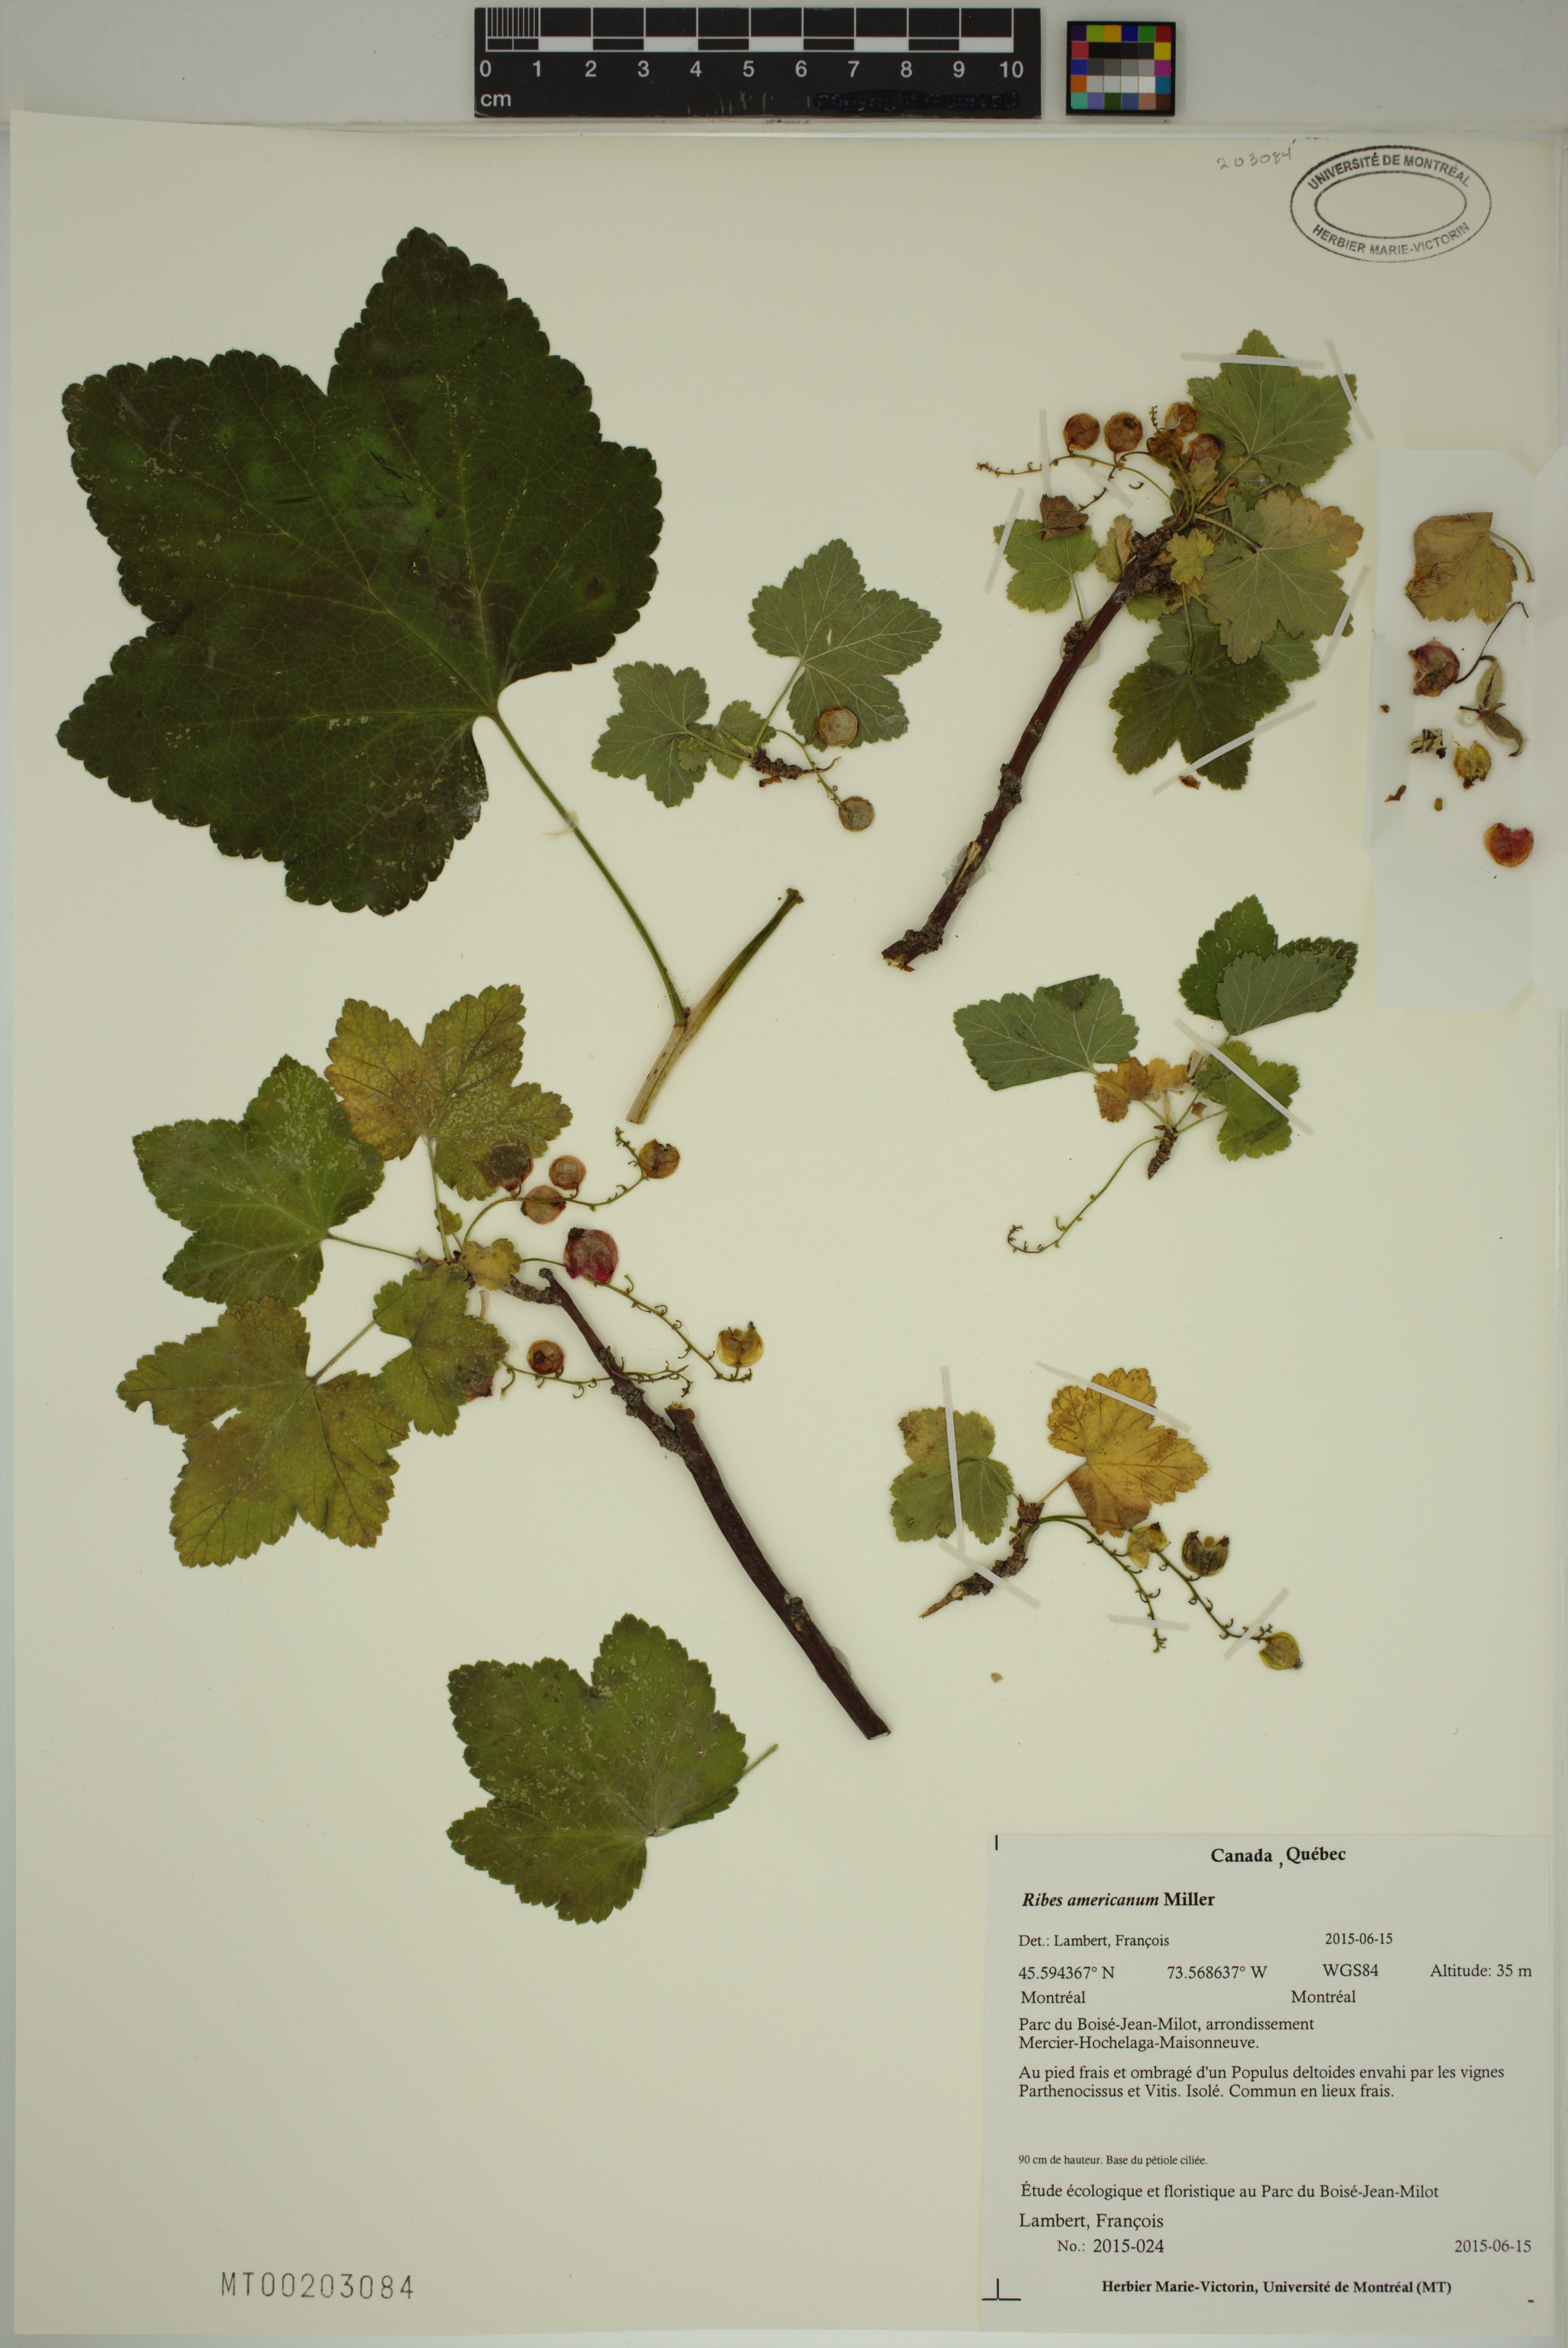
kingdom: Plantae
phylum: Tracheophyta
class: Magnoliopsida
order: Saxifragales
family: Grossulariaceae
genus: Ribes
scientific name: Ribes americanum
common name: American black currant
